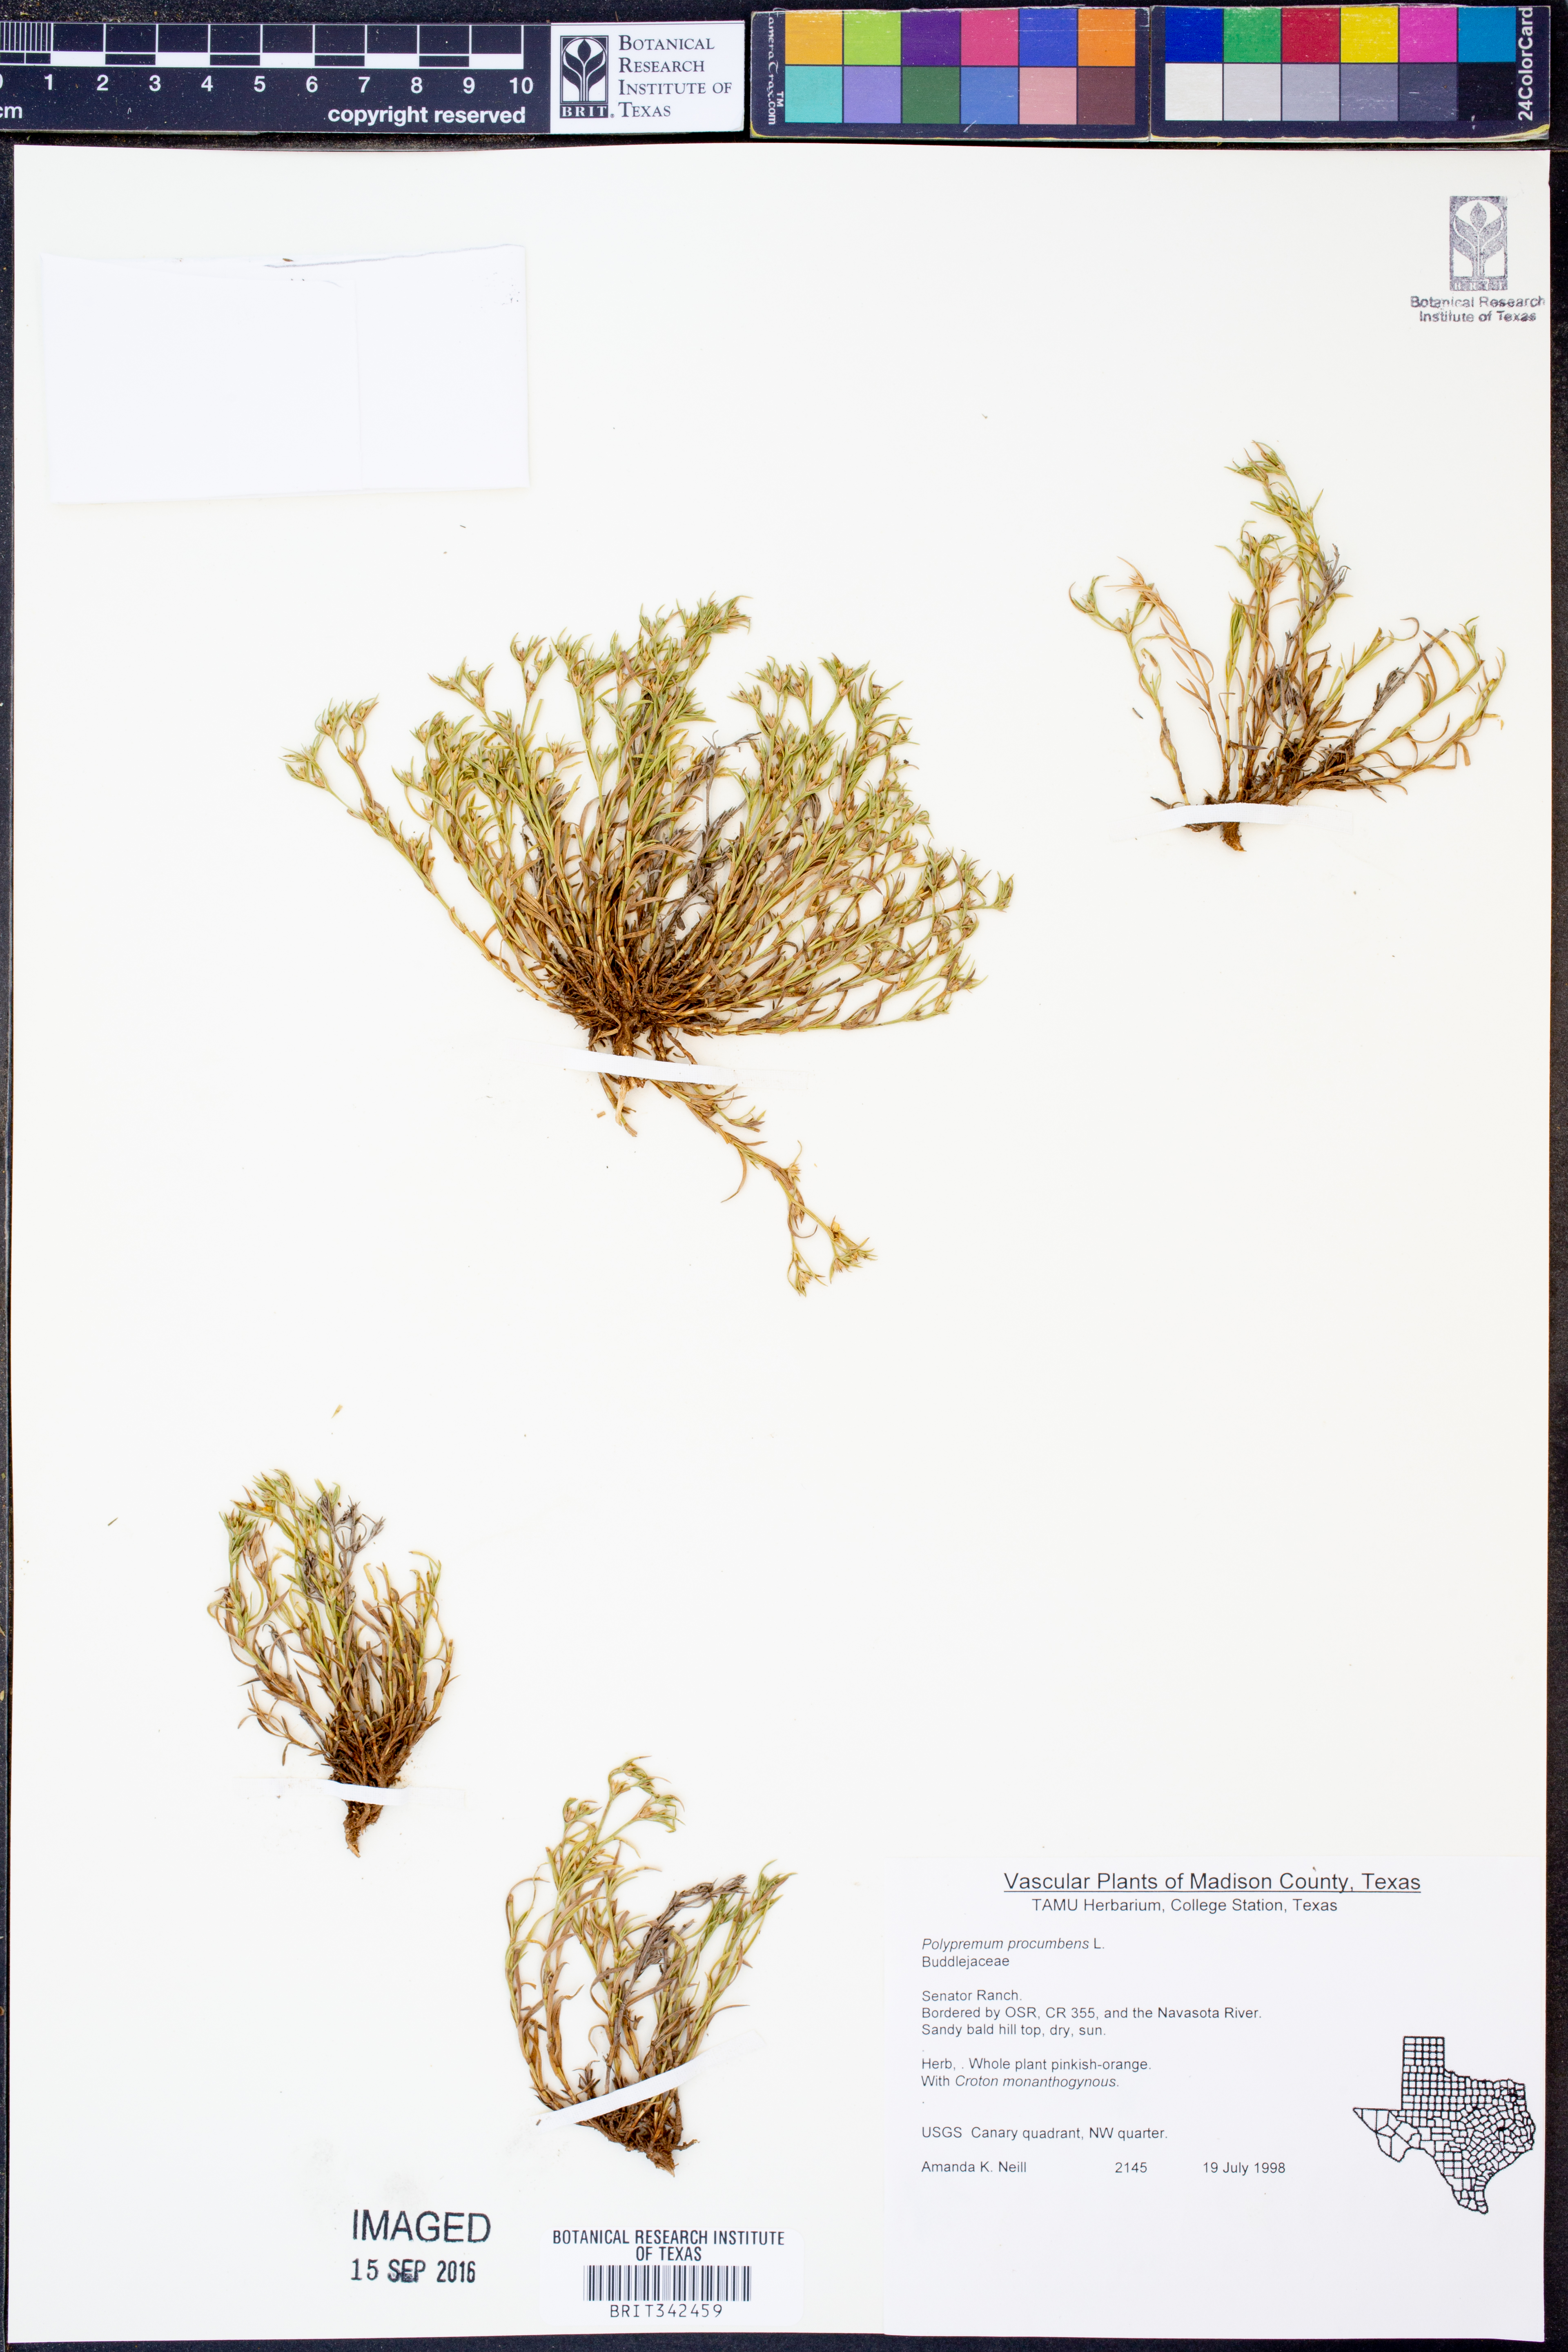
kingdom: Plantae
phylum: Tracheophyta
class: Magnoliopsida
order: Lamiales
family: Tetrachondraceae
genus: Polypremum
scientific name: Polypremum procumbens
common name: Juniper-leaf
